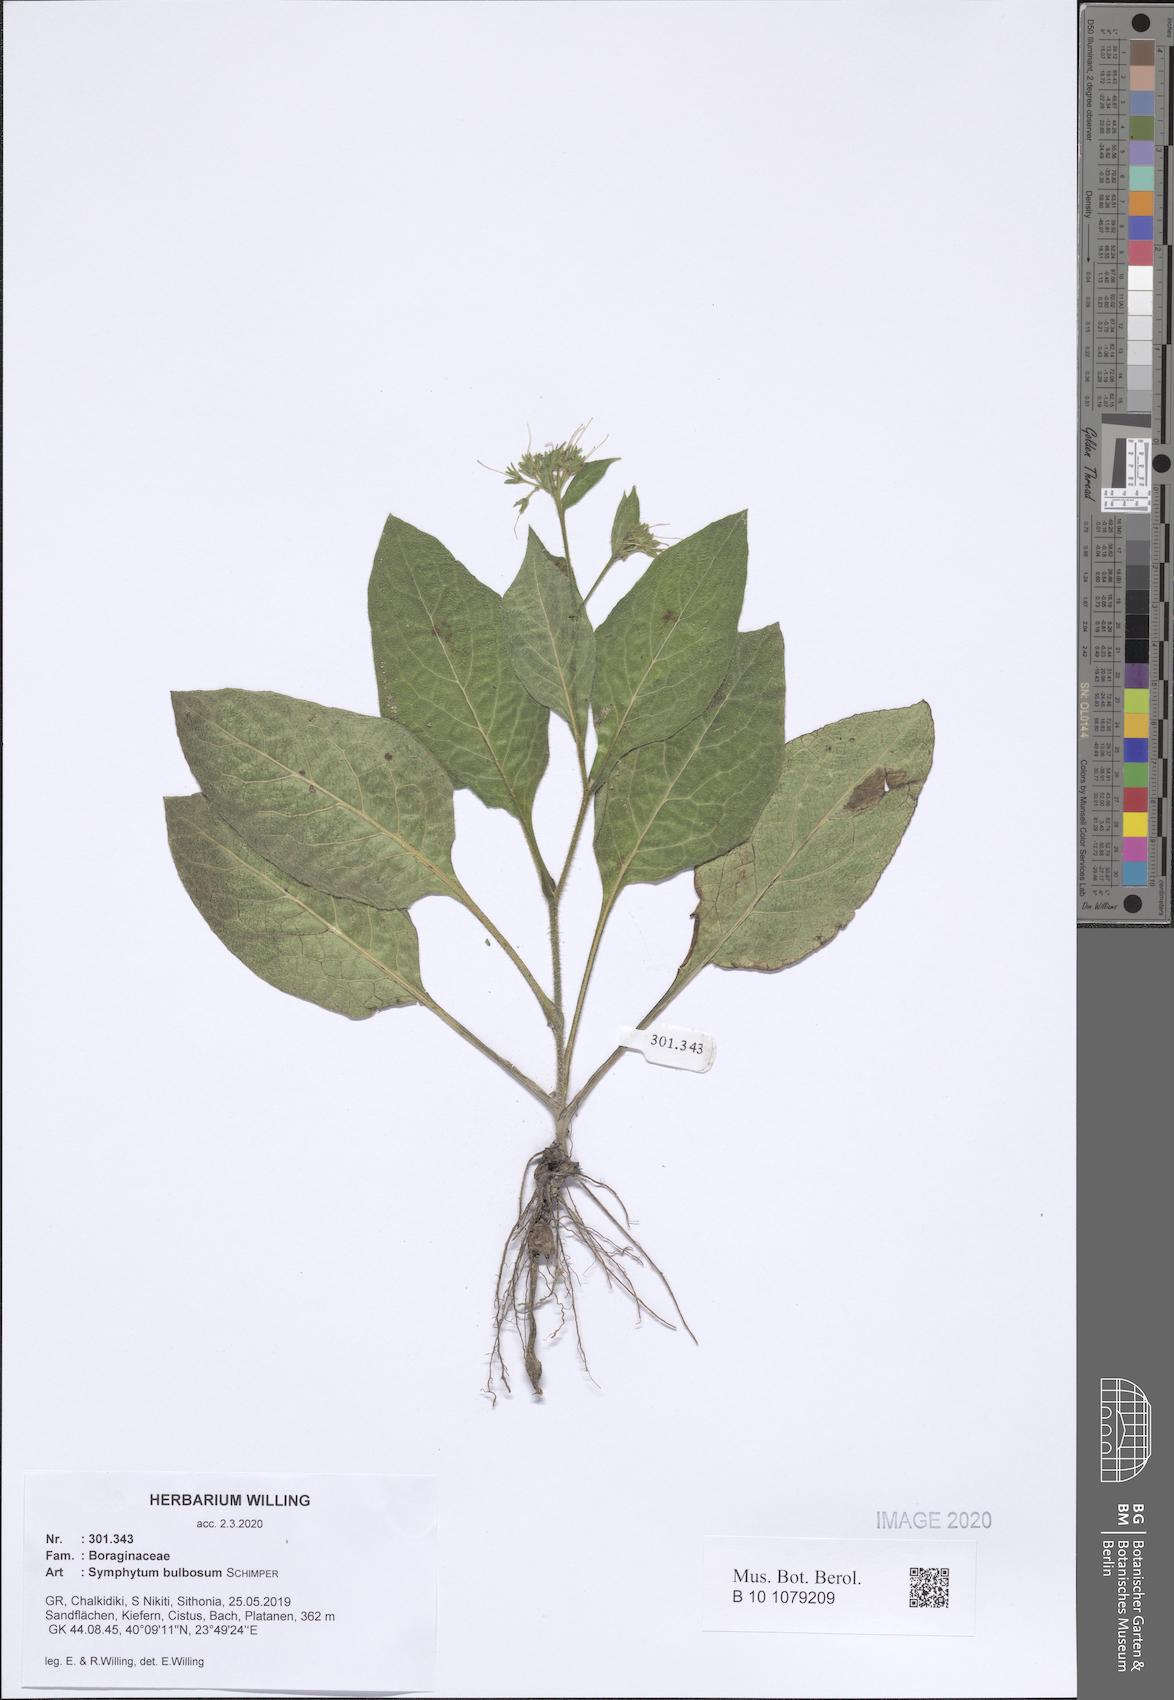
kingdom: Plantae
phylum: Tracheophyta
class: Magnoliopsida
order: Boraginales
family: Boraginaceae
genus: Symphytum
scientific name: Symphytum bulbosum
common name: Bulbous comfrey
